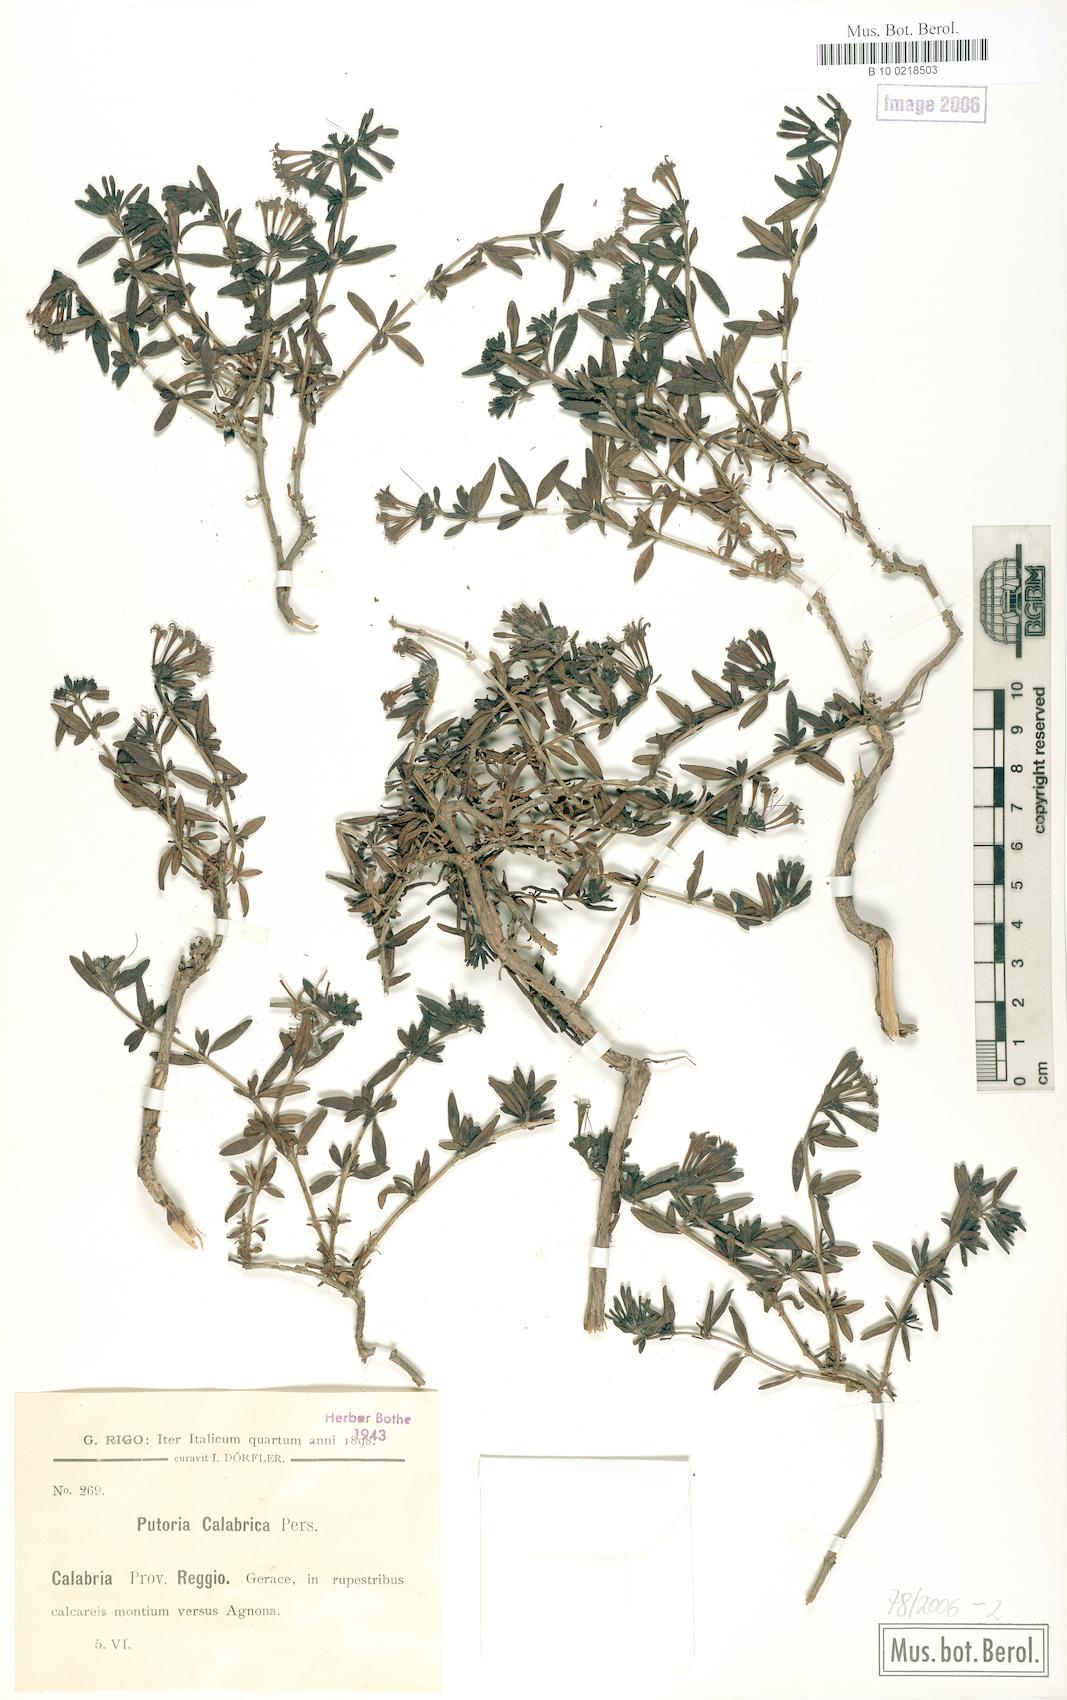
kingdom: Plantae
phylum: Tracheophyta
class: Magnoliopsida
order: Gentianales
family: Rubiaceae
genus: Plocama
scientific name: Plocama calabrica
